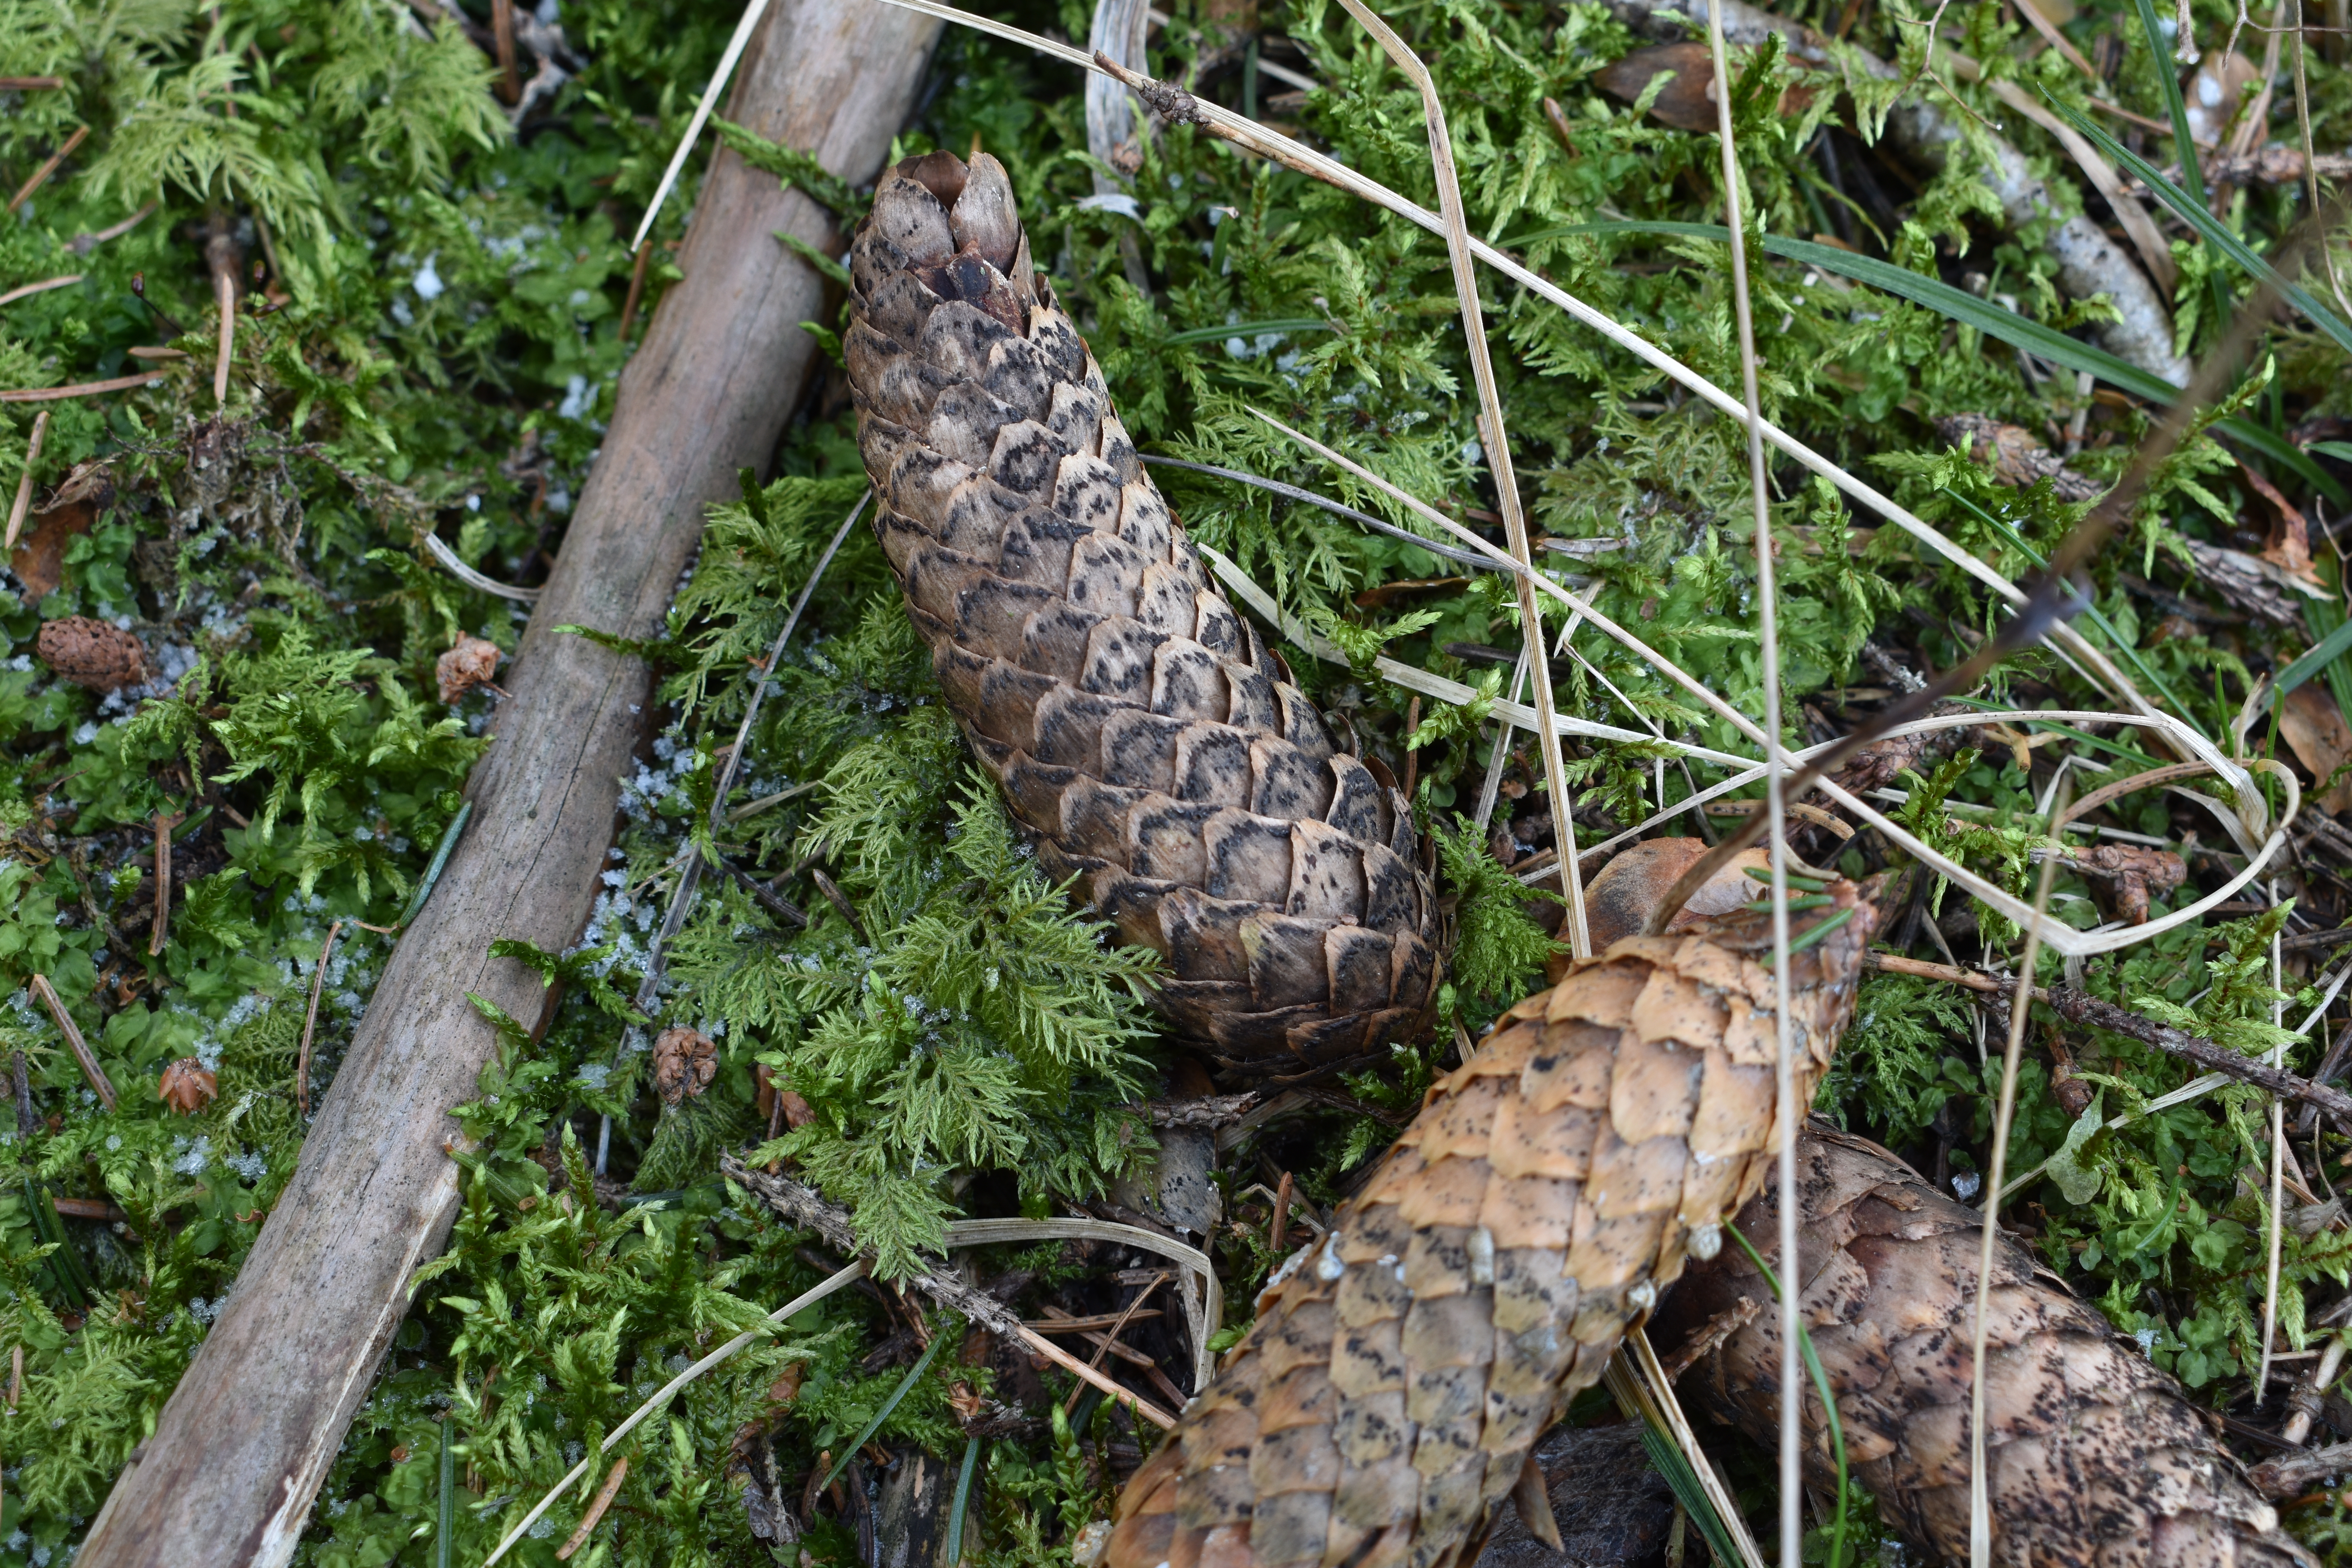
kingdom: Fungi
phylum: Ascomycota
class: Dothideomycetes
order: Pleosporales
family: Melanommataceae
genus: Phragmotrichum
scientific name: Phragmotrichum chailletii
